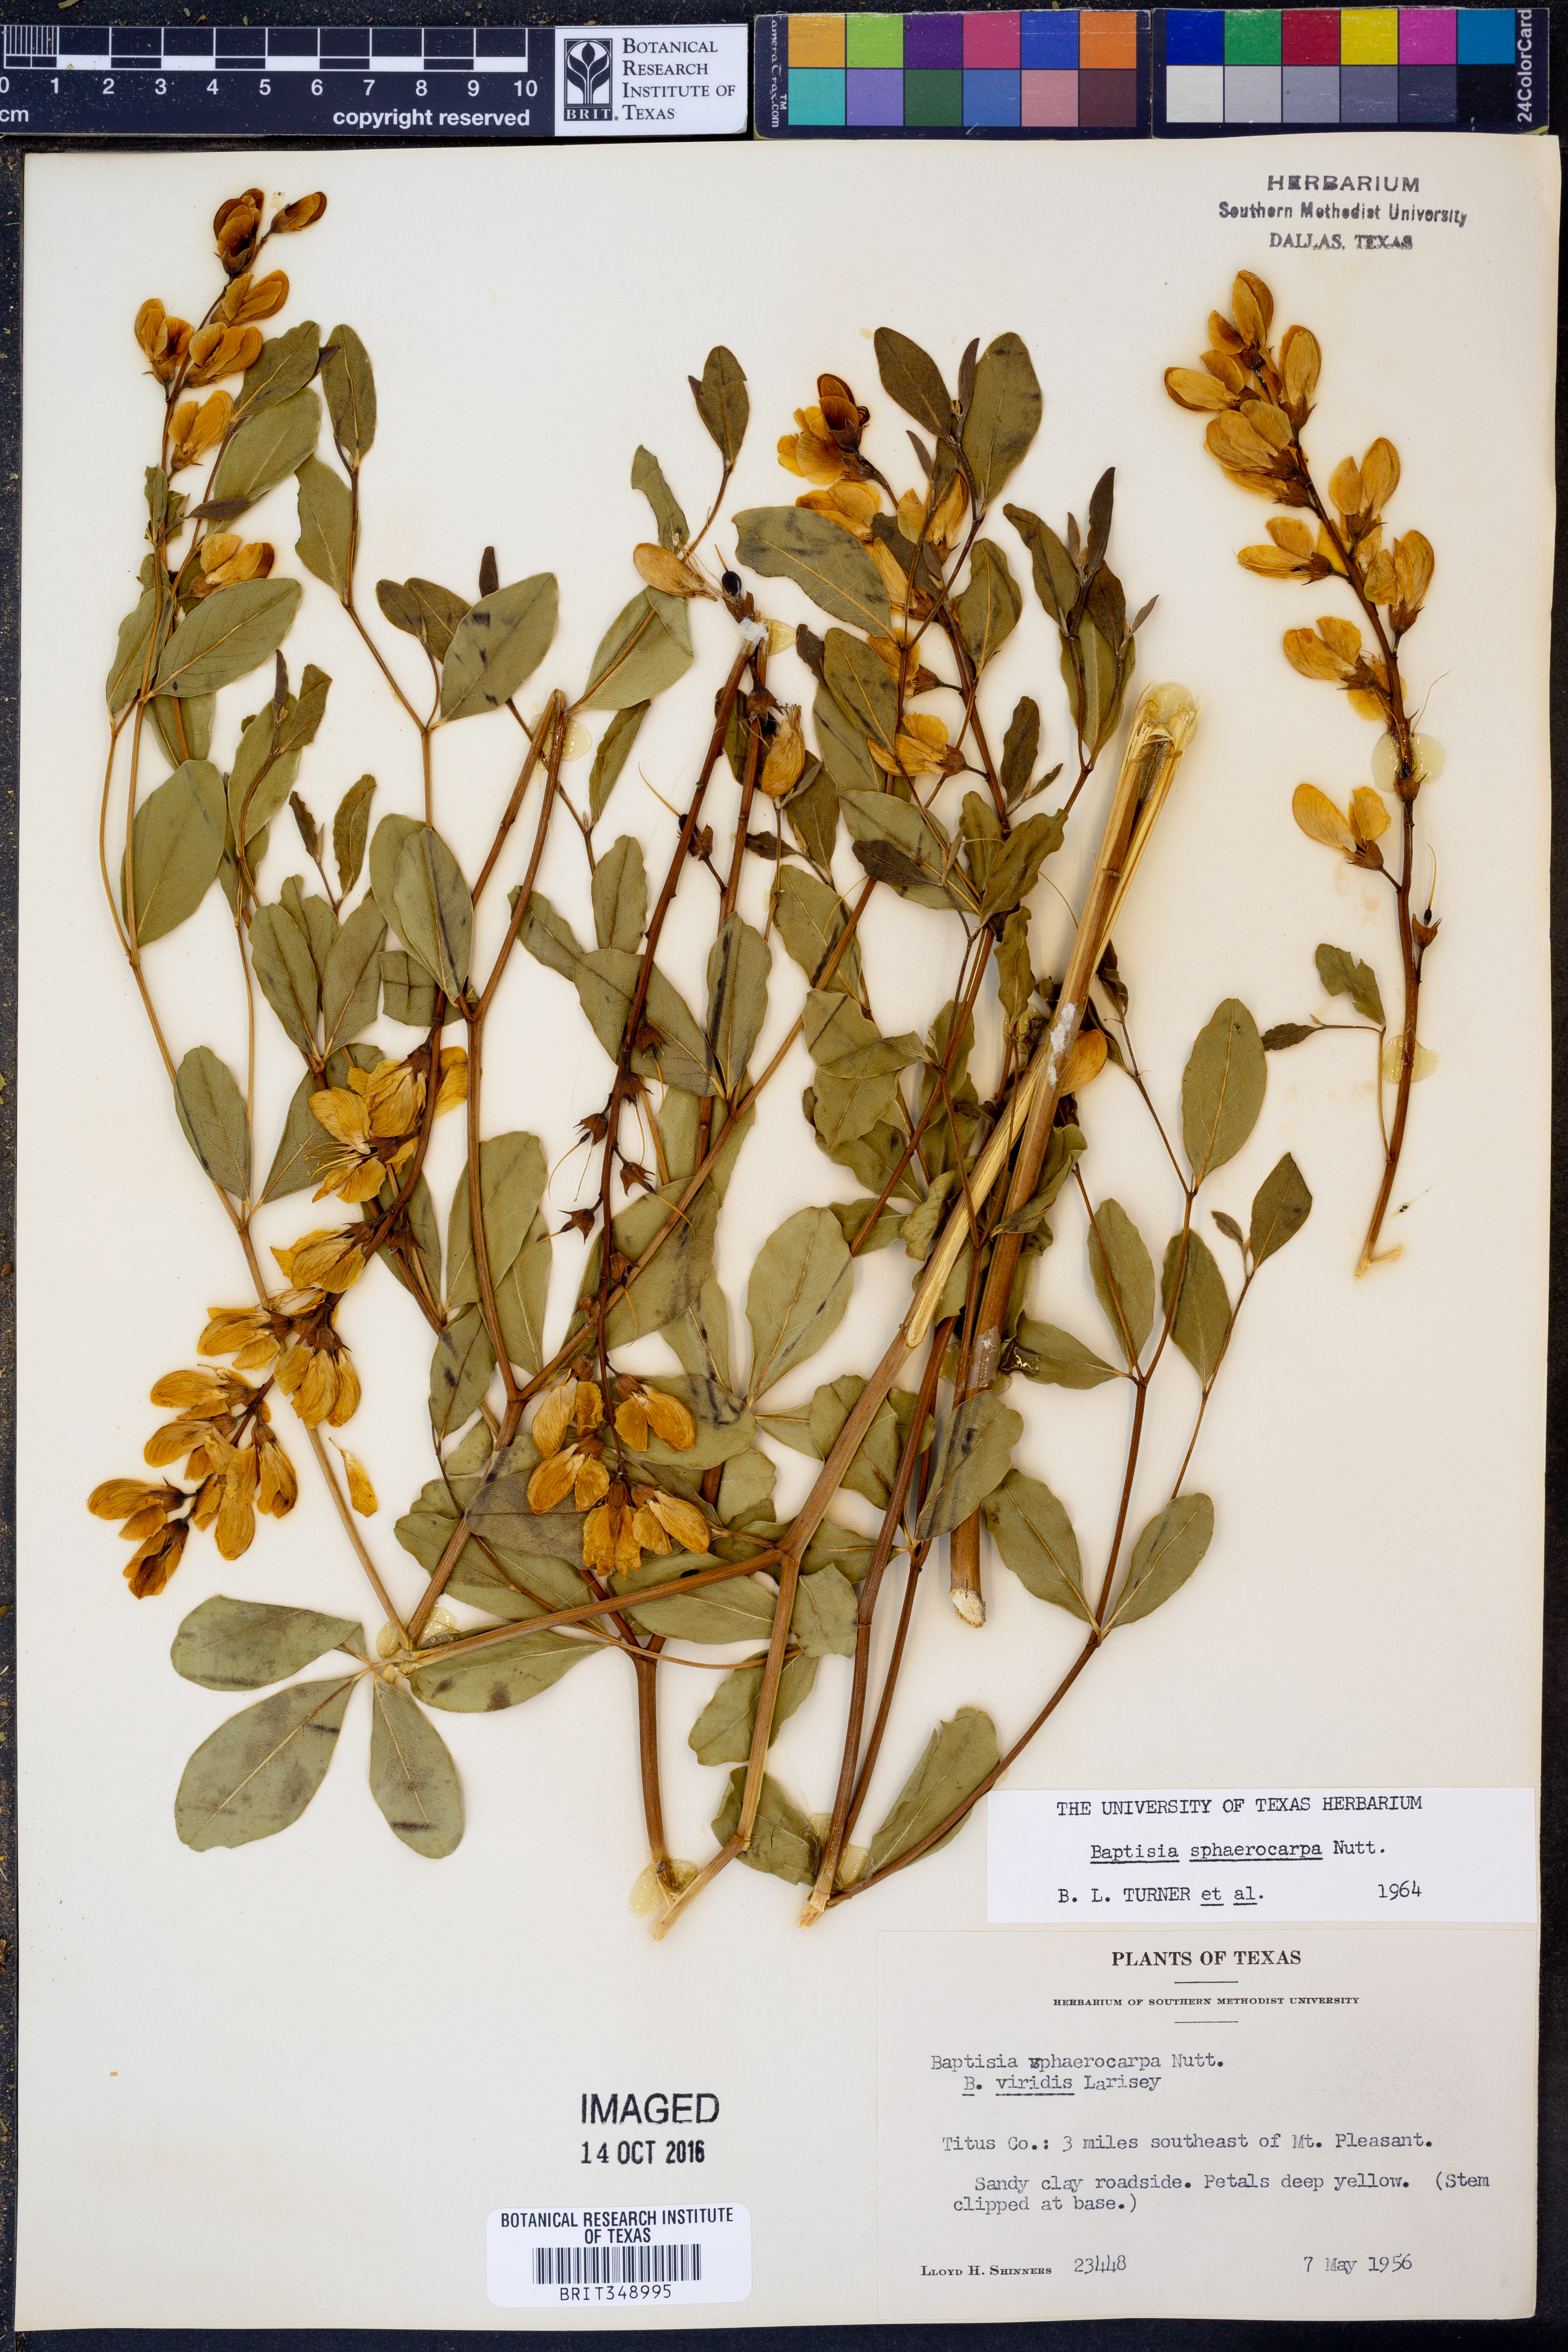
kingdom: Plantae
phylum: Tracheophyta
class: Magnoliopsida
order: Fabales
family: Fabaceae
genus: Baptisia
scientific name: Baptisia sphaerocarpa
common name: Round wild indigo
